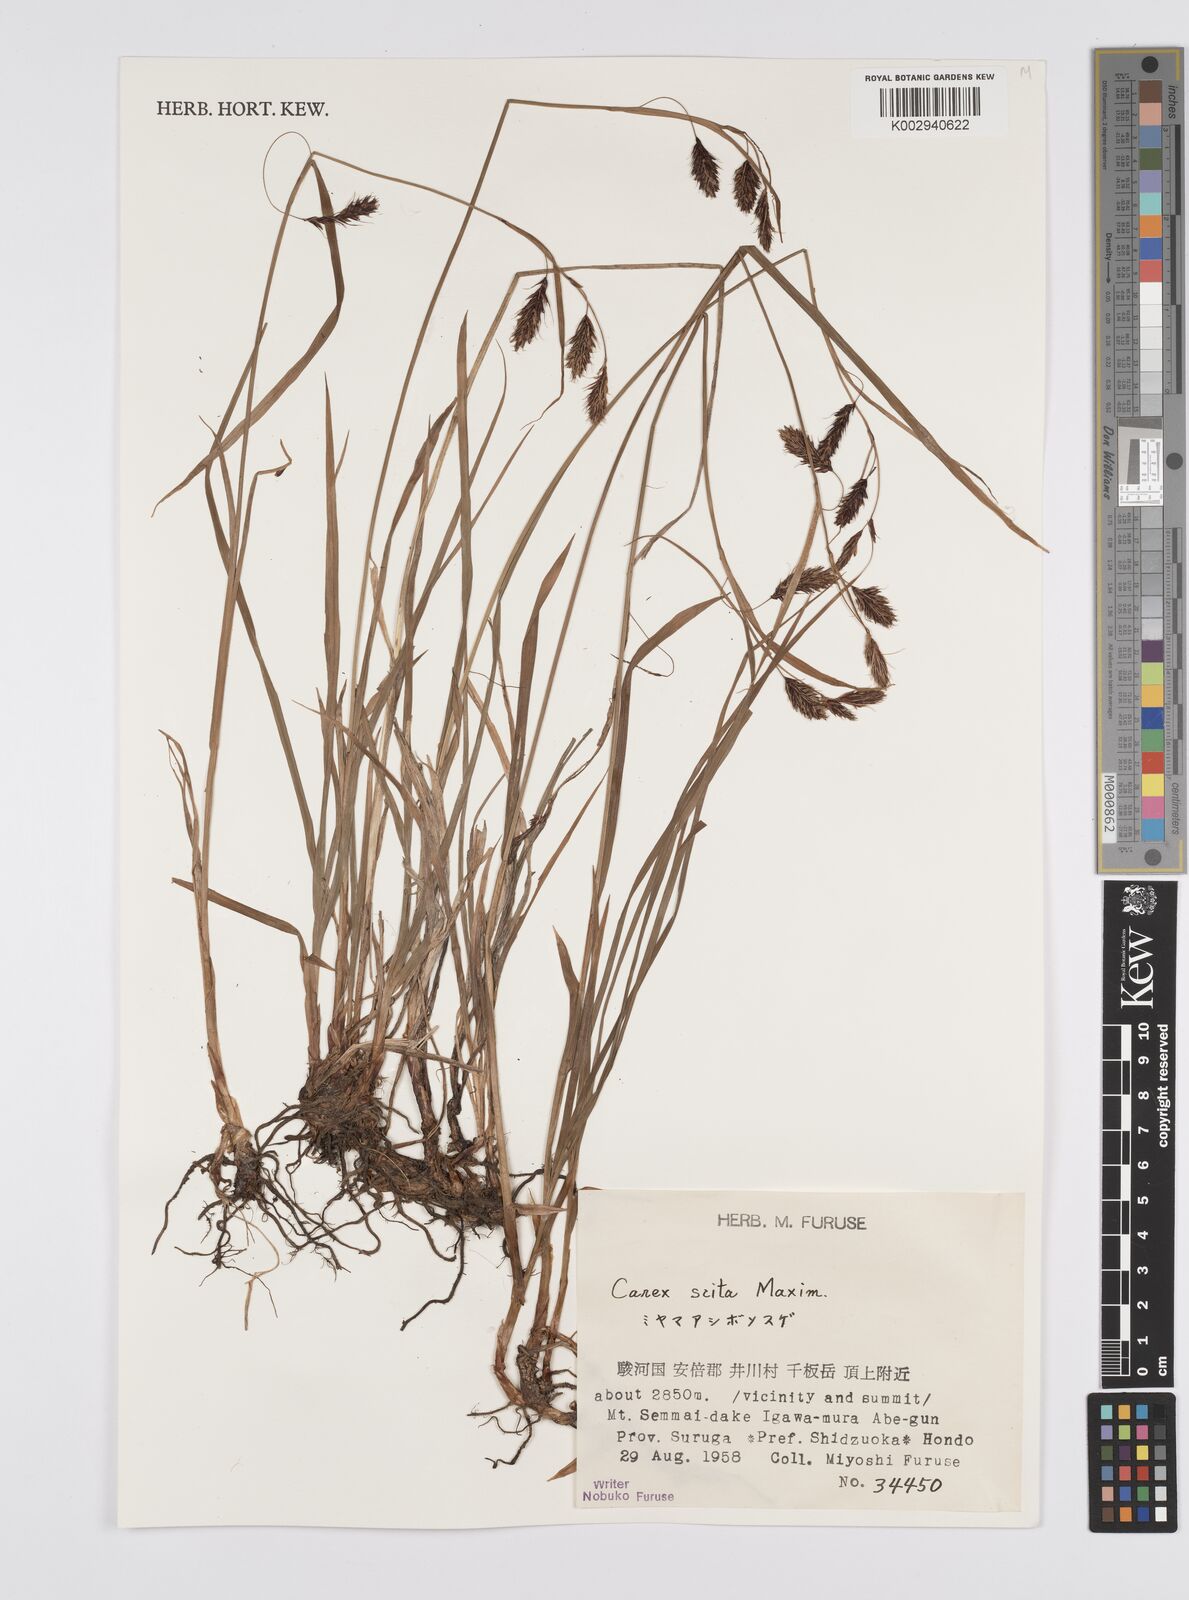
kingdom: Plantae
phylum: Tracheophyta
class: Liliopsida
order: Poales
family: Cyperaceae
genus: Carex
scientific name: Carex scita
